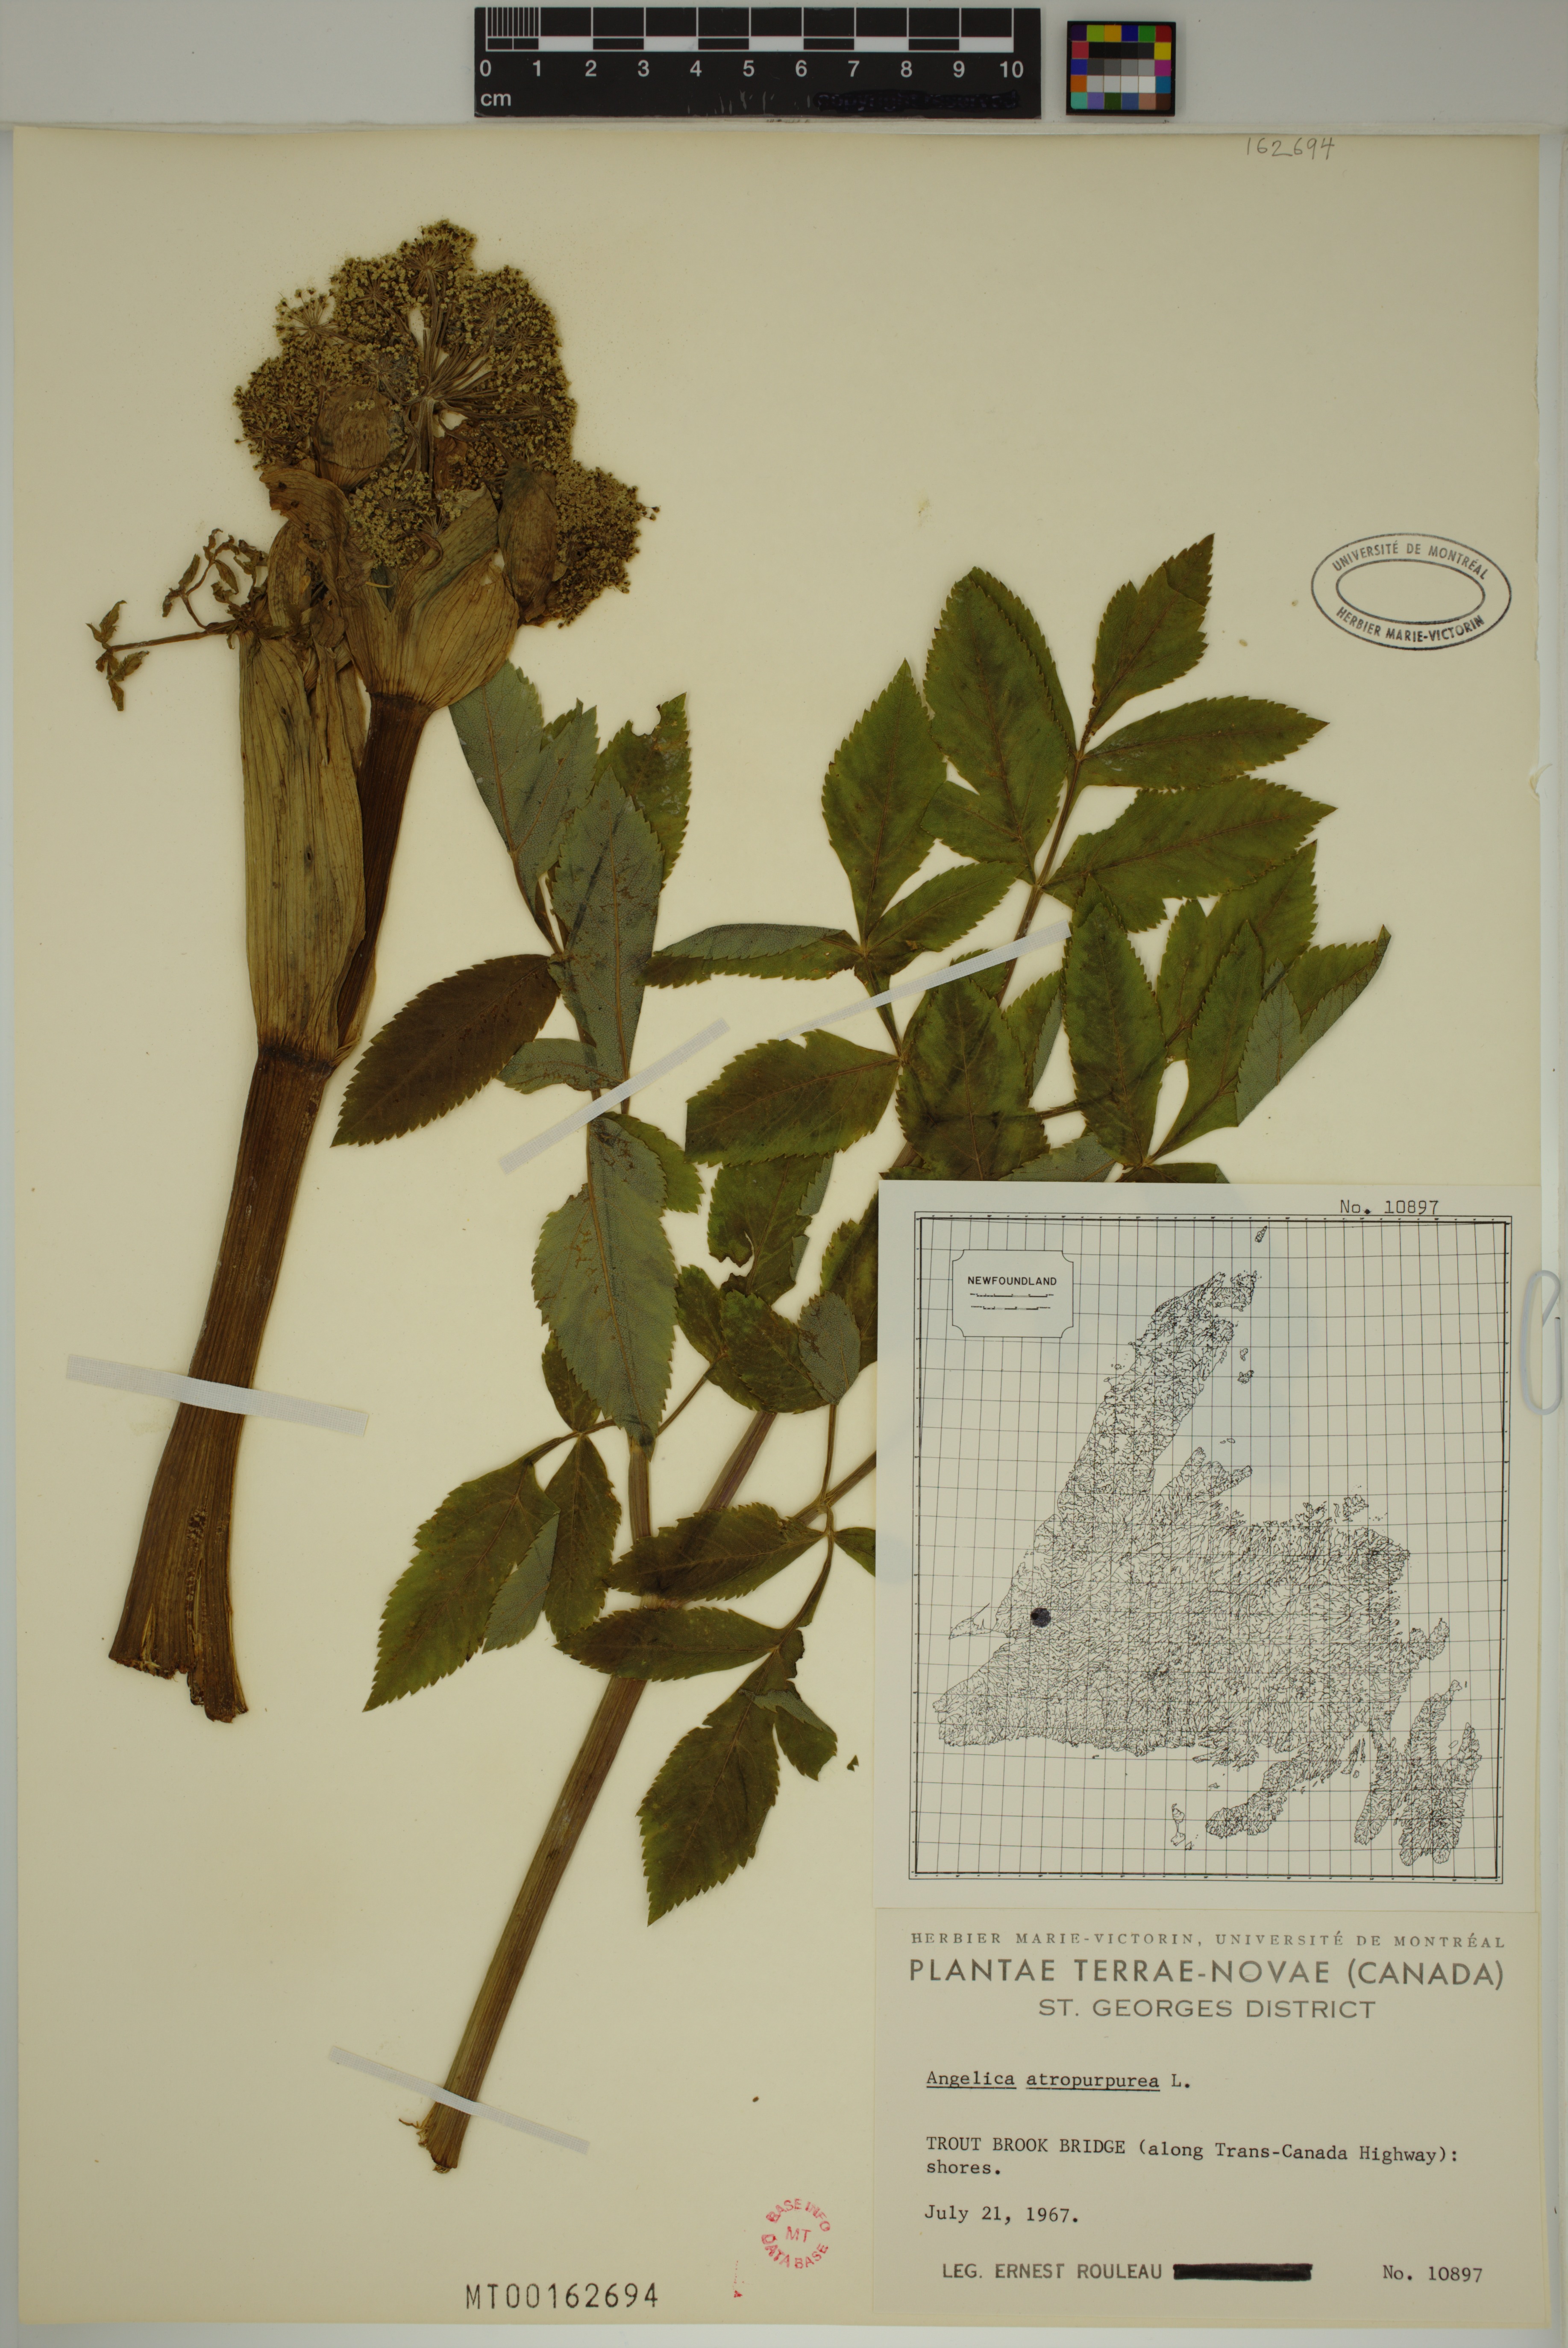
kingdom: Plantae
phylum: Tracheophyta
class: Magnoliopsida
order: Apiales
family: Apiaceae
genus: Angelica
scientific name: Angelica atropurpurea
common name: Great angelica
